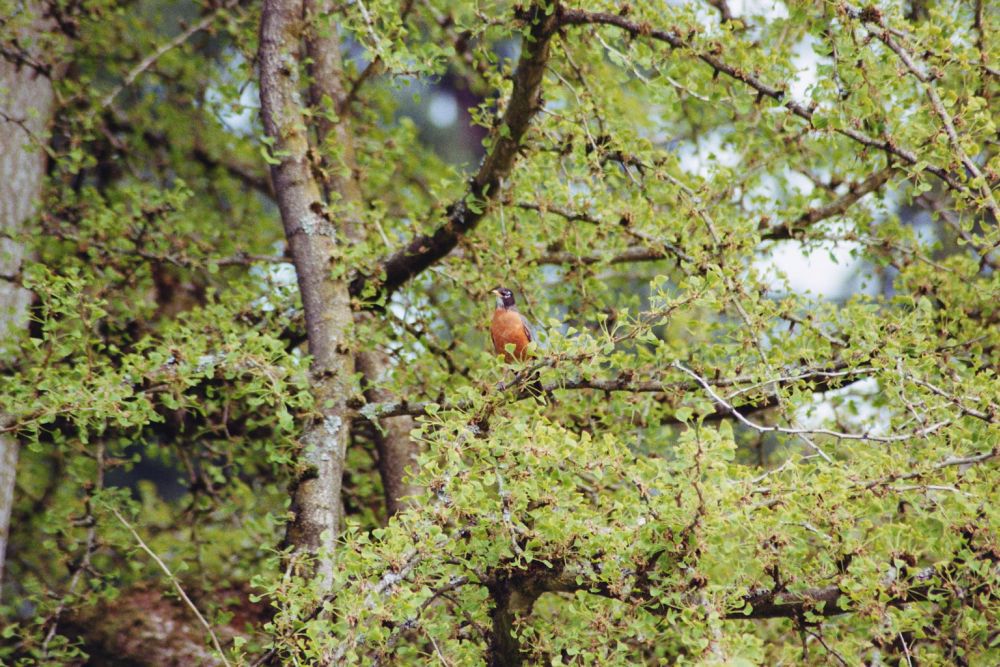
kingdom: Animalia
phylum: Chordata
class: Aves
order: Passeriformes
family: Turdidae
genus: Turdus
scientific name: Turdus migratorius
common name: American robin
